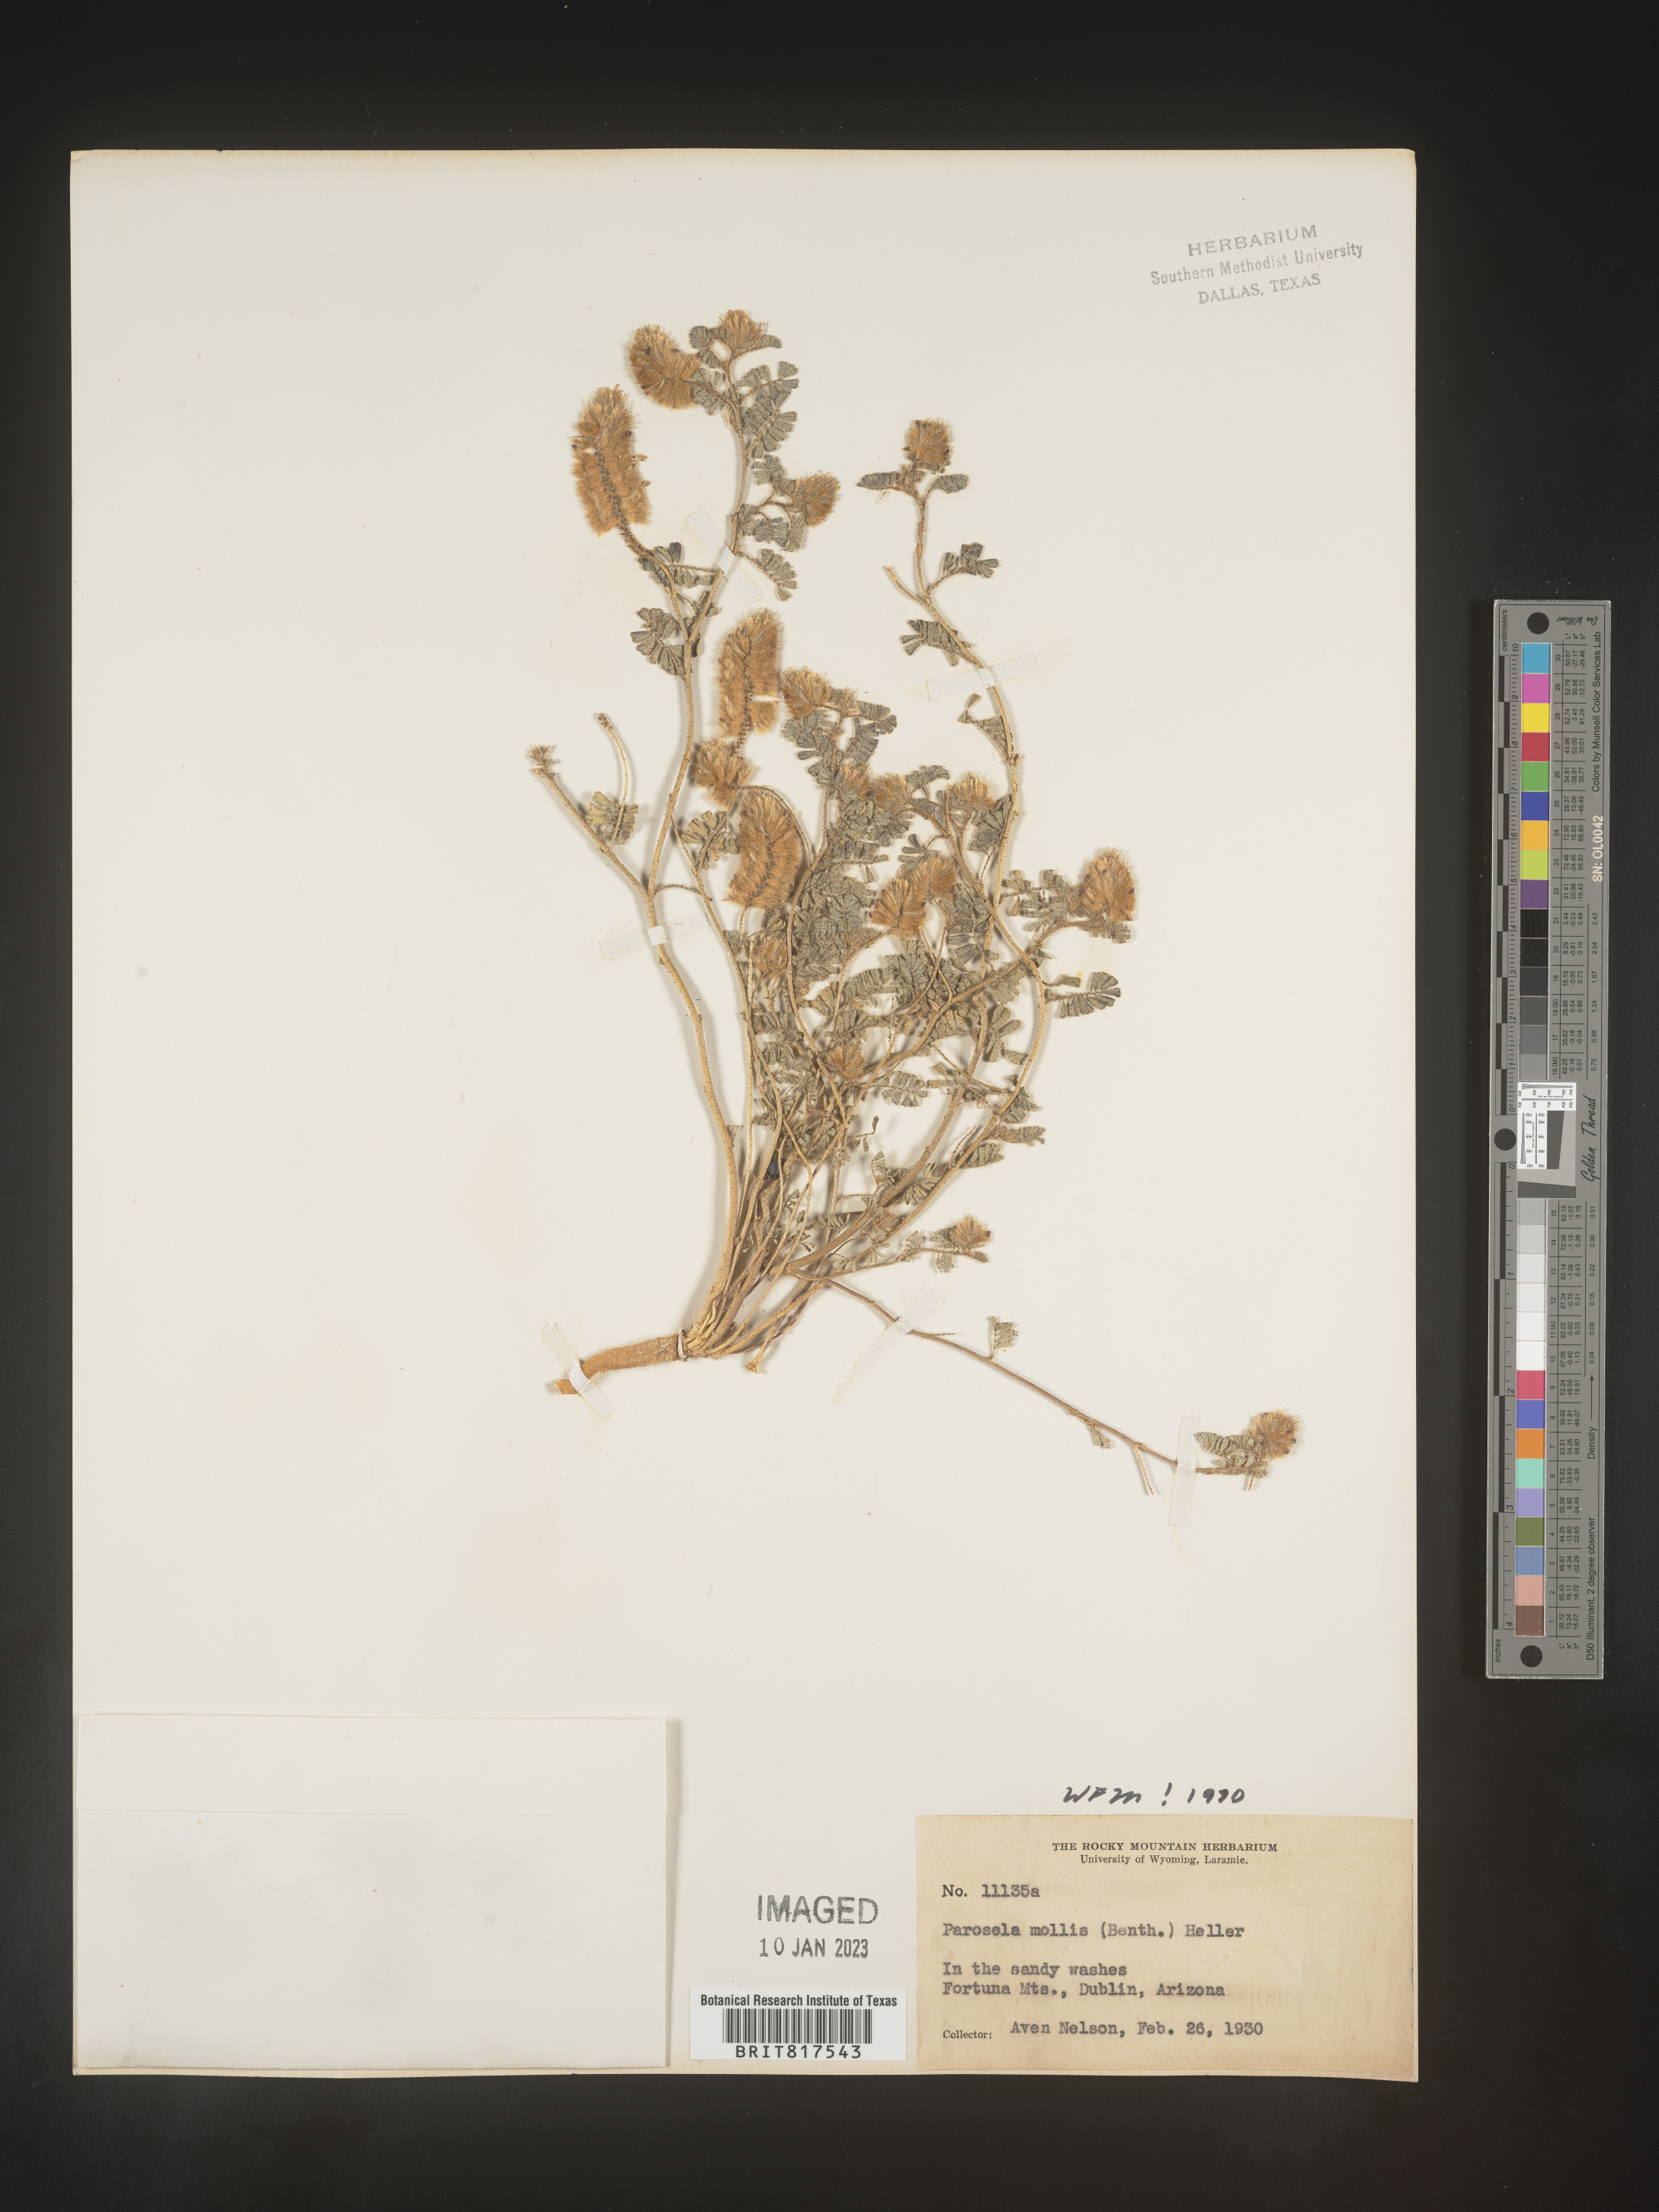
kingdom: Plantae
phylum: Tracheophyta
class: Magnoliopsida
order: Fabales
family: Fabaceae
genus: Dalea
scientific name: Dalea leporina
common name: Foxtail dalea
